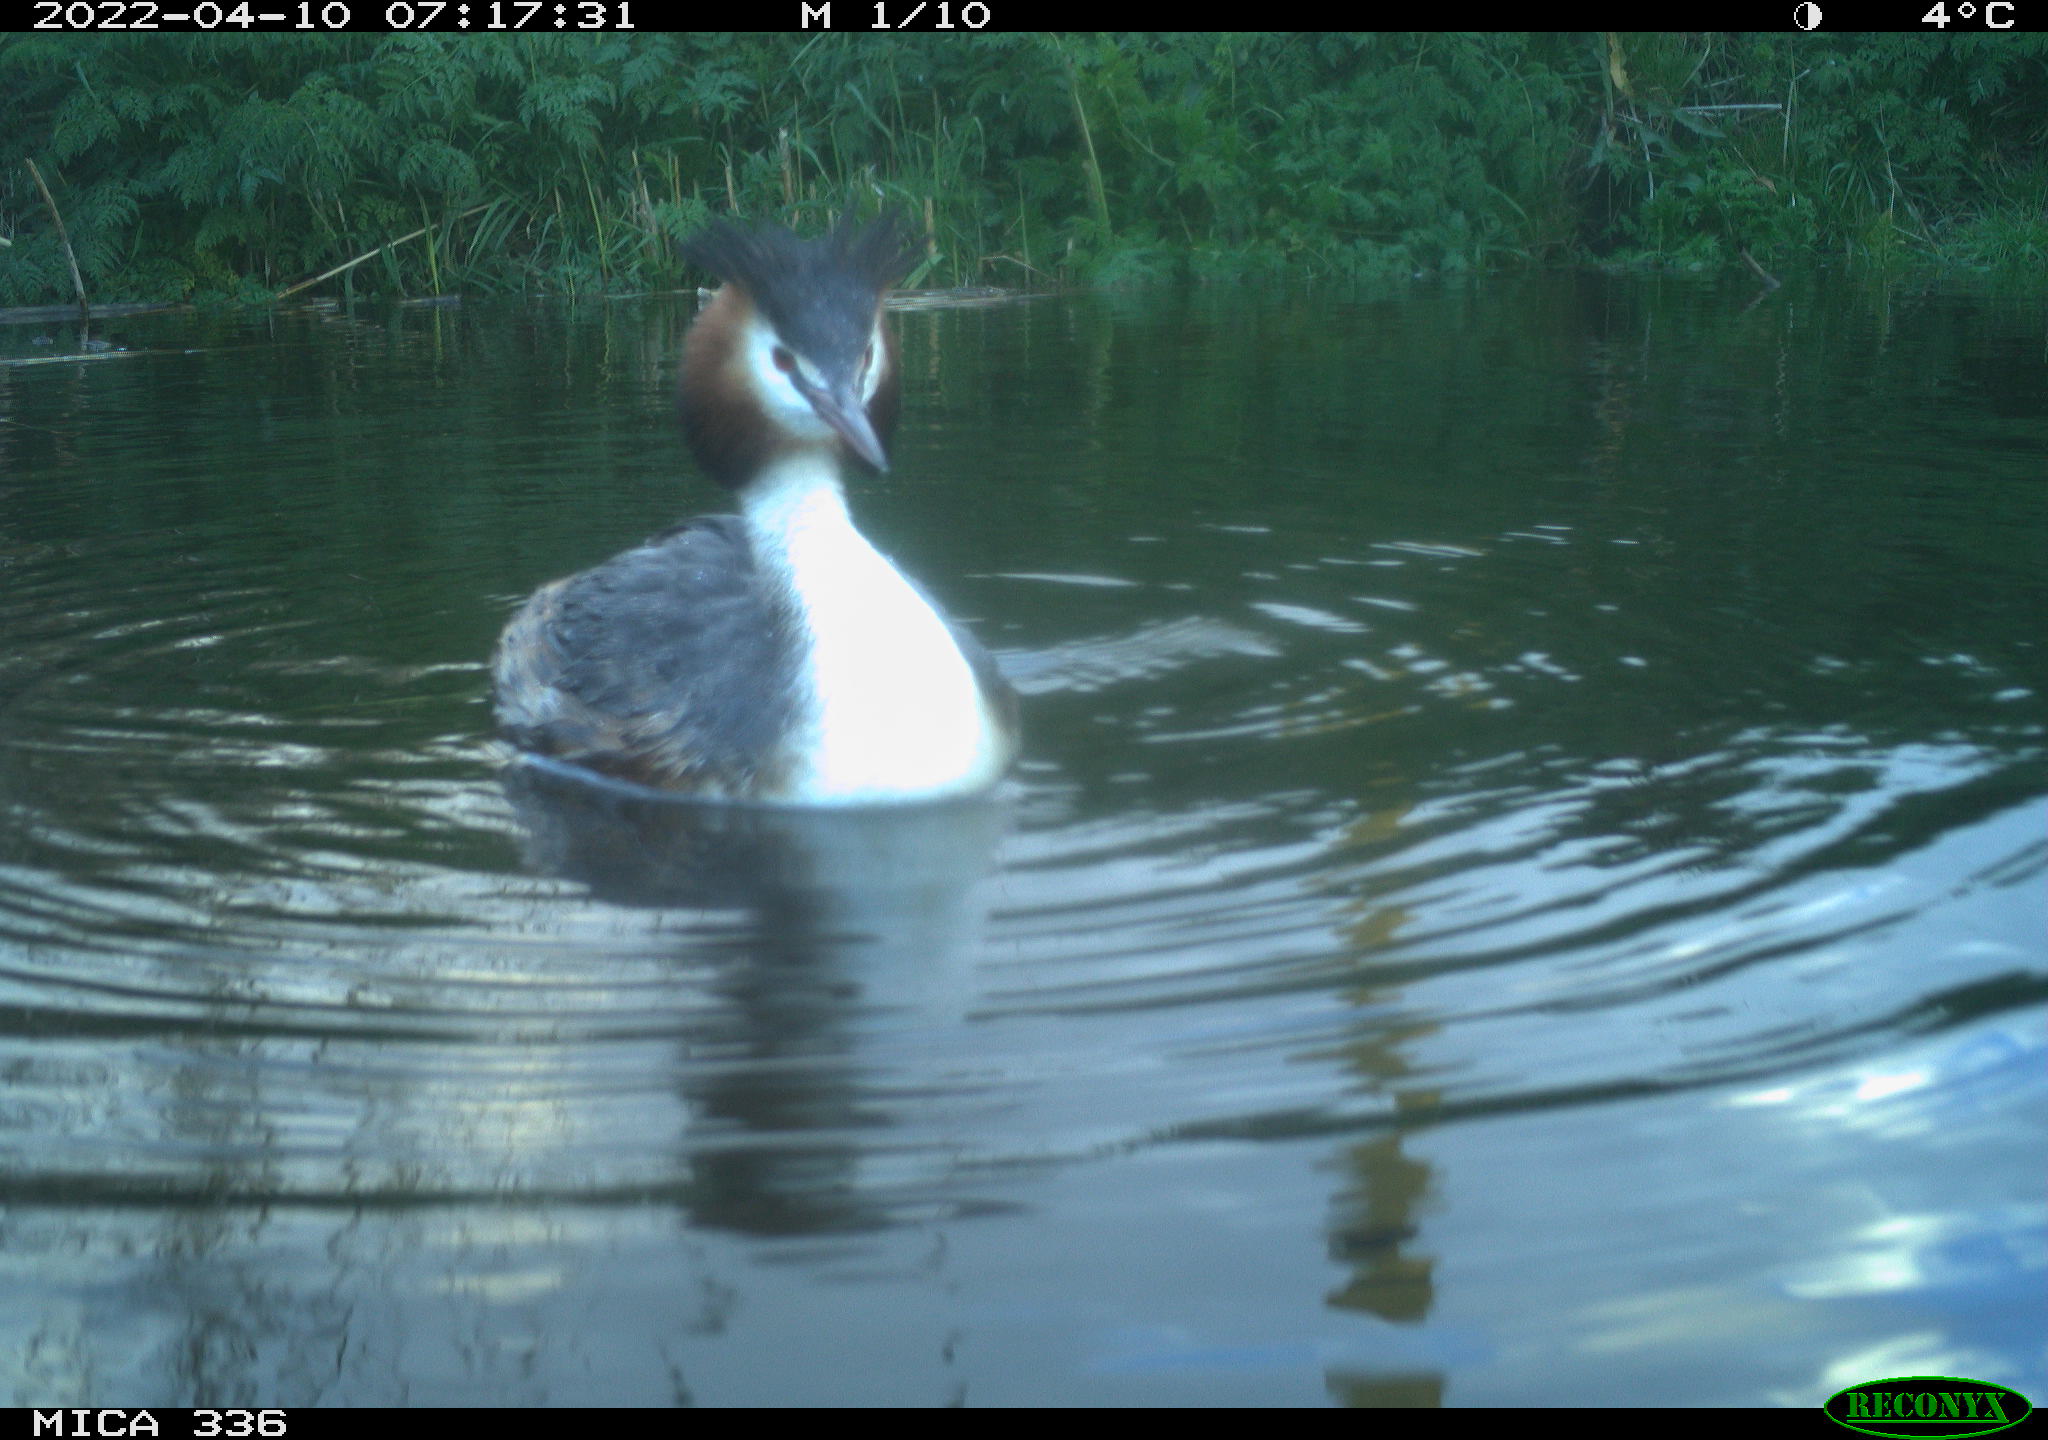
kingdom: Animalia
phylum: Chordata
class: Aves
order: Podicipediformes
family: Podicipedidae
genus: Podiceps
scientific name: Podiceps cristatus
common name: Great crested grebe
